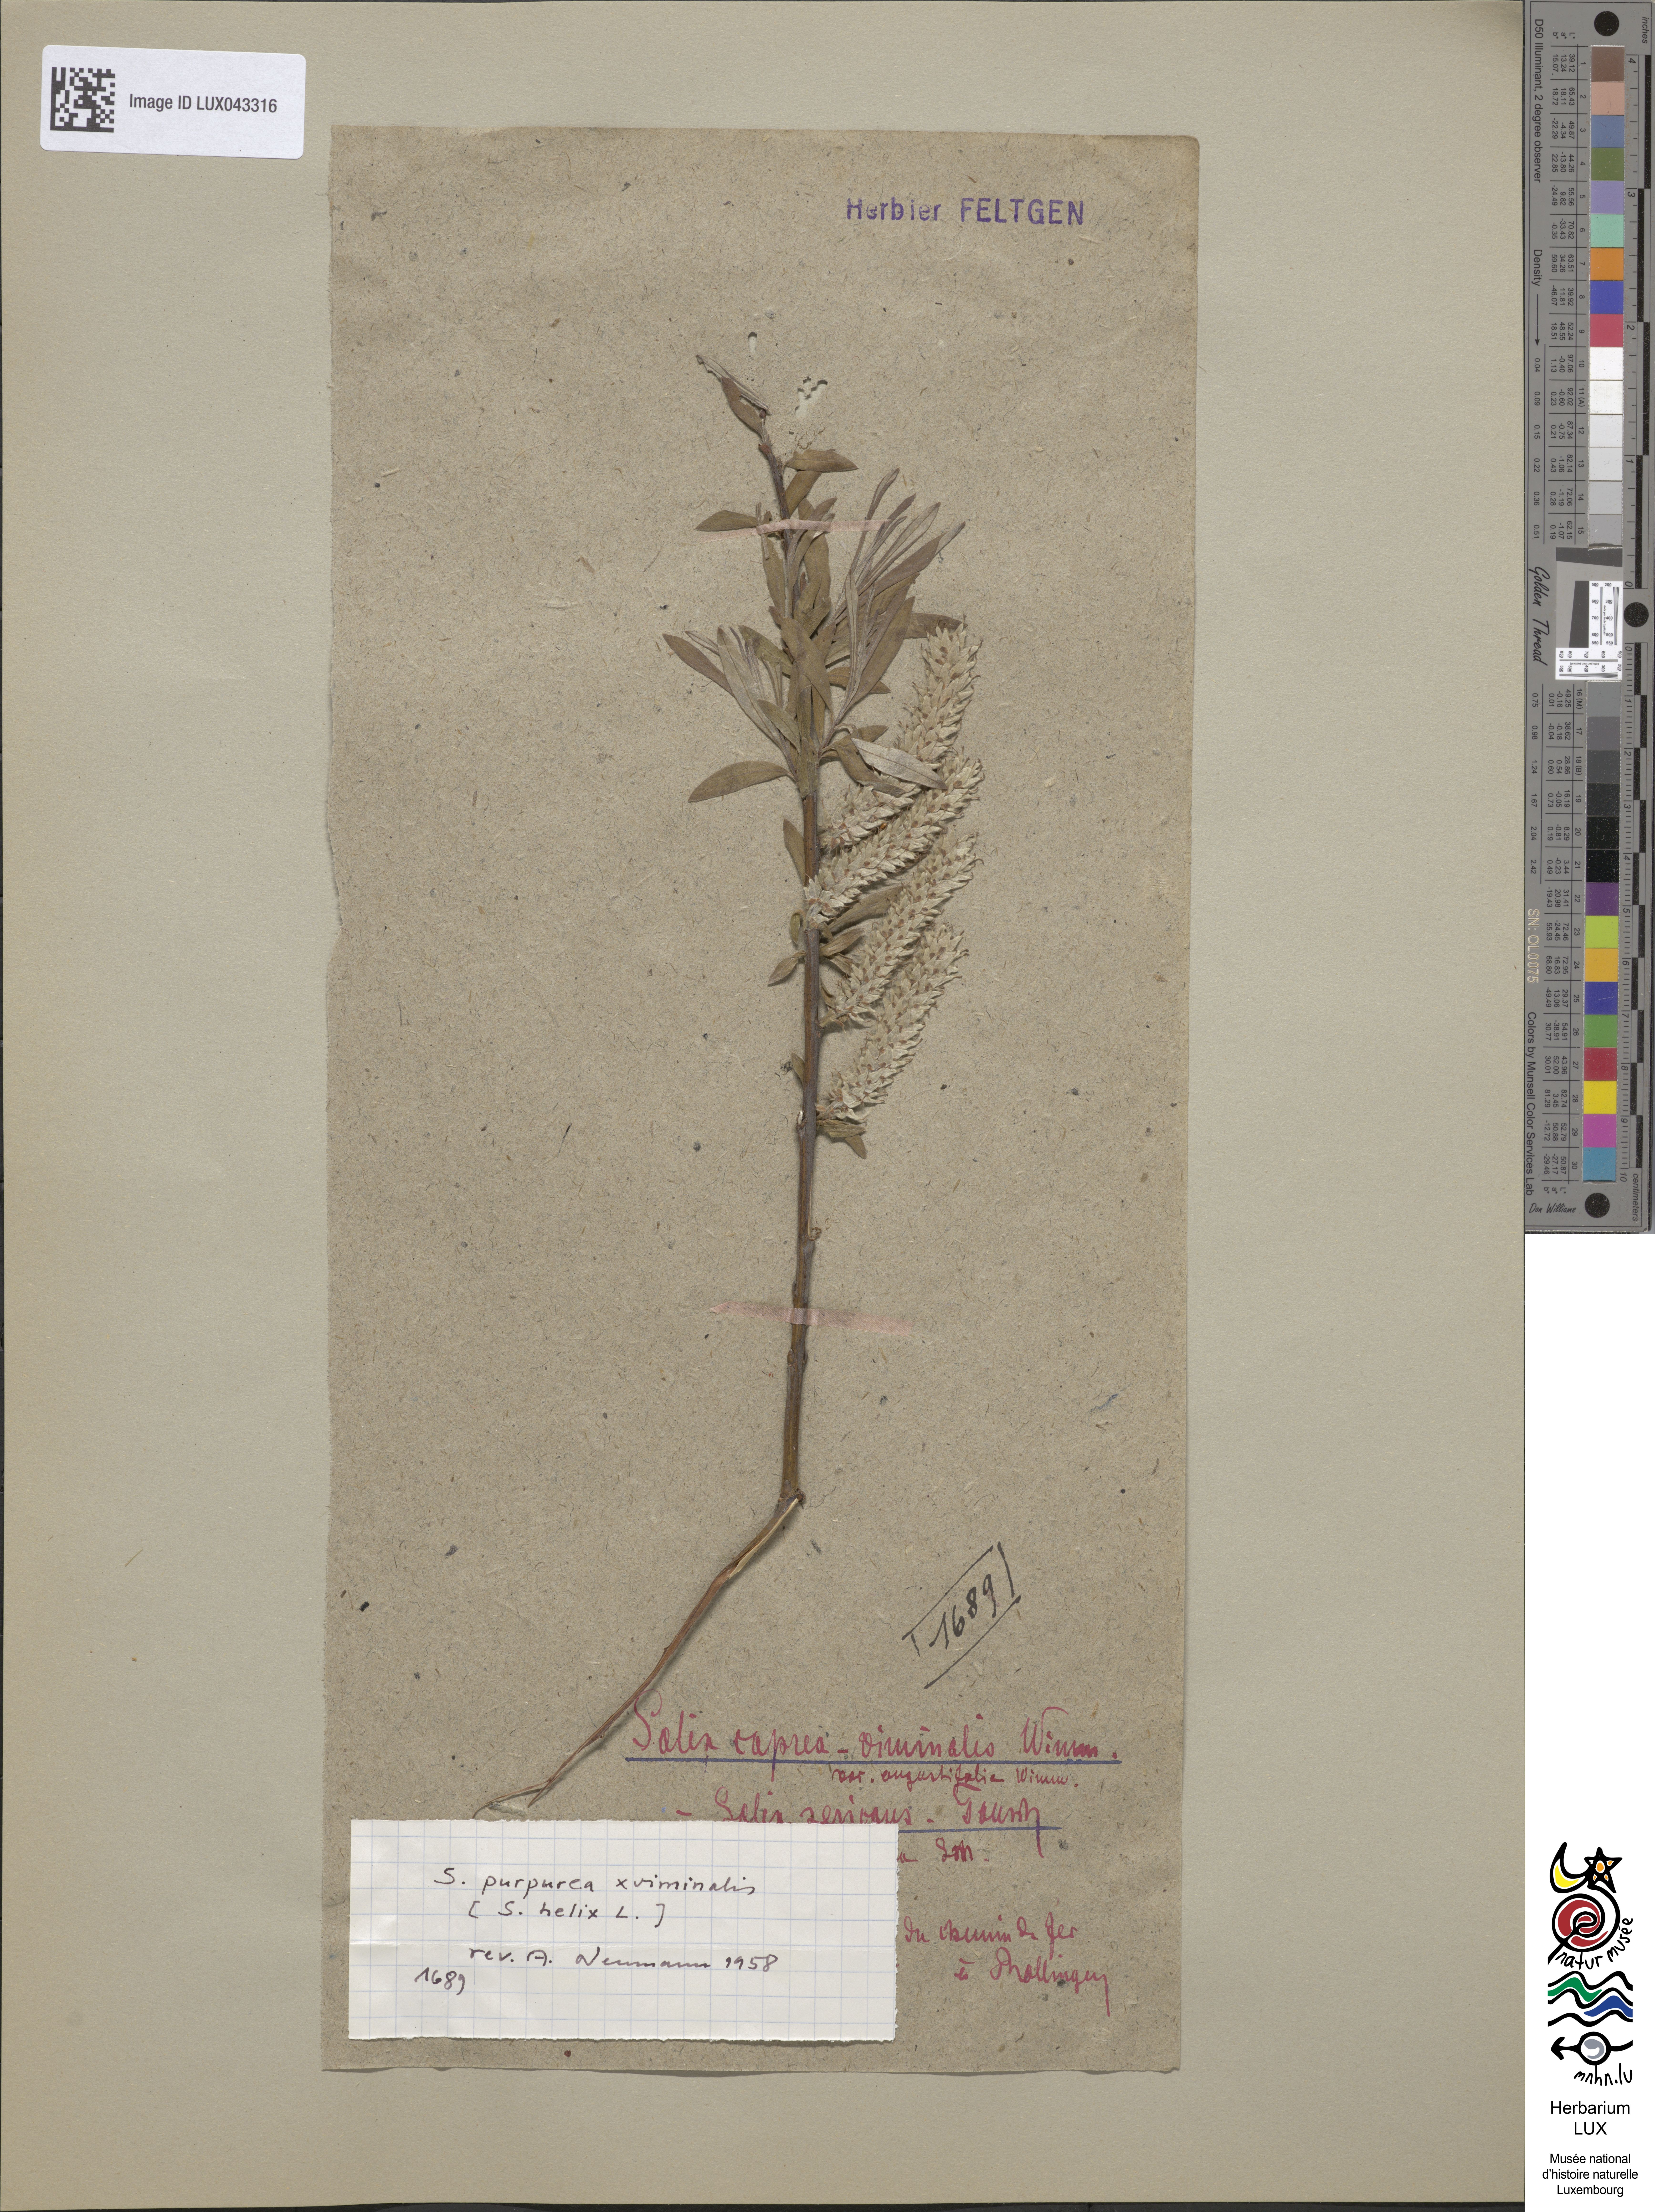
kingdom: Plantae
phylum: Tracheophyta
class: Magnoliopsida
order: Malpighiales
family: Salicaceae
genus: Salix
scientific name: Salix
